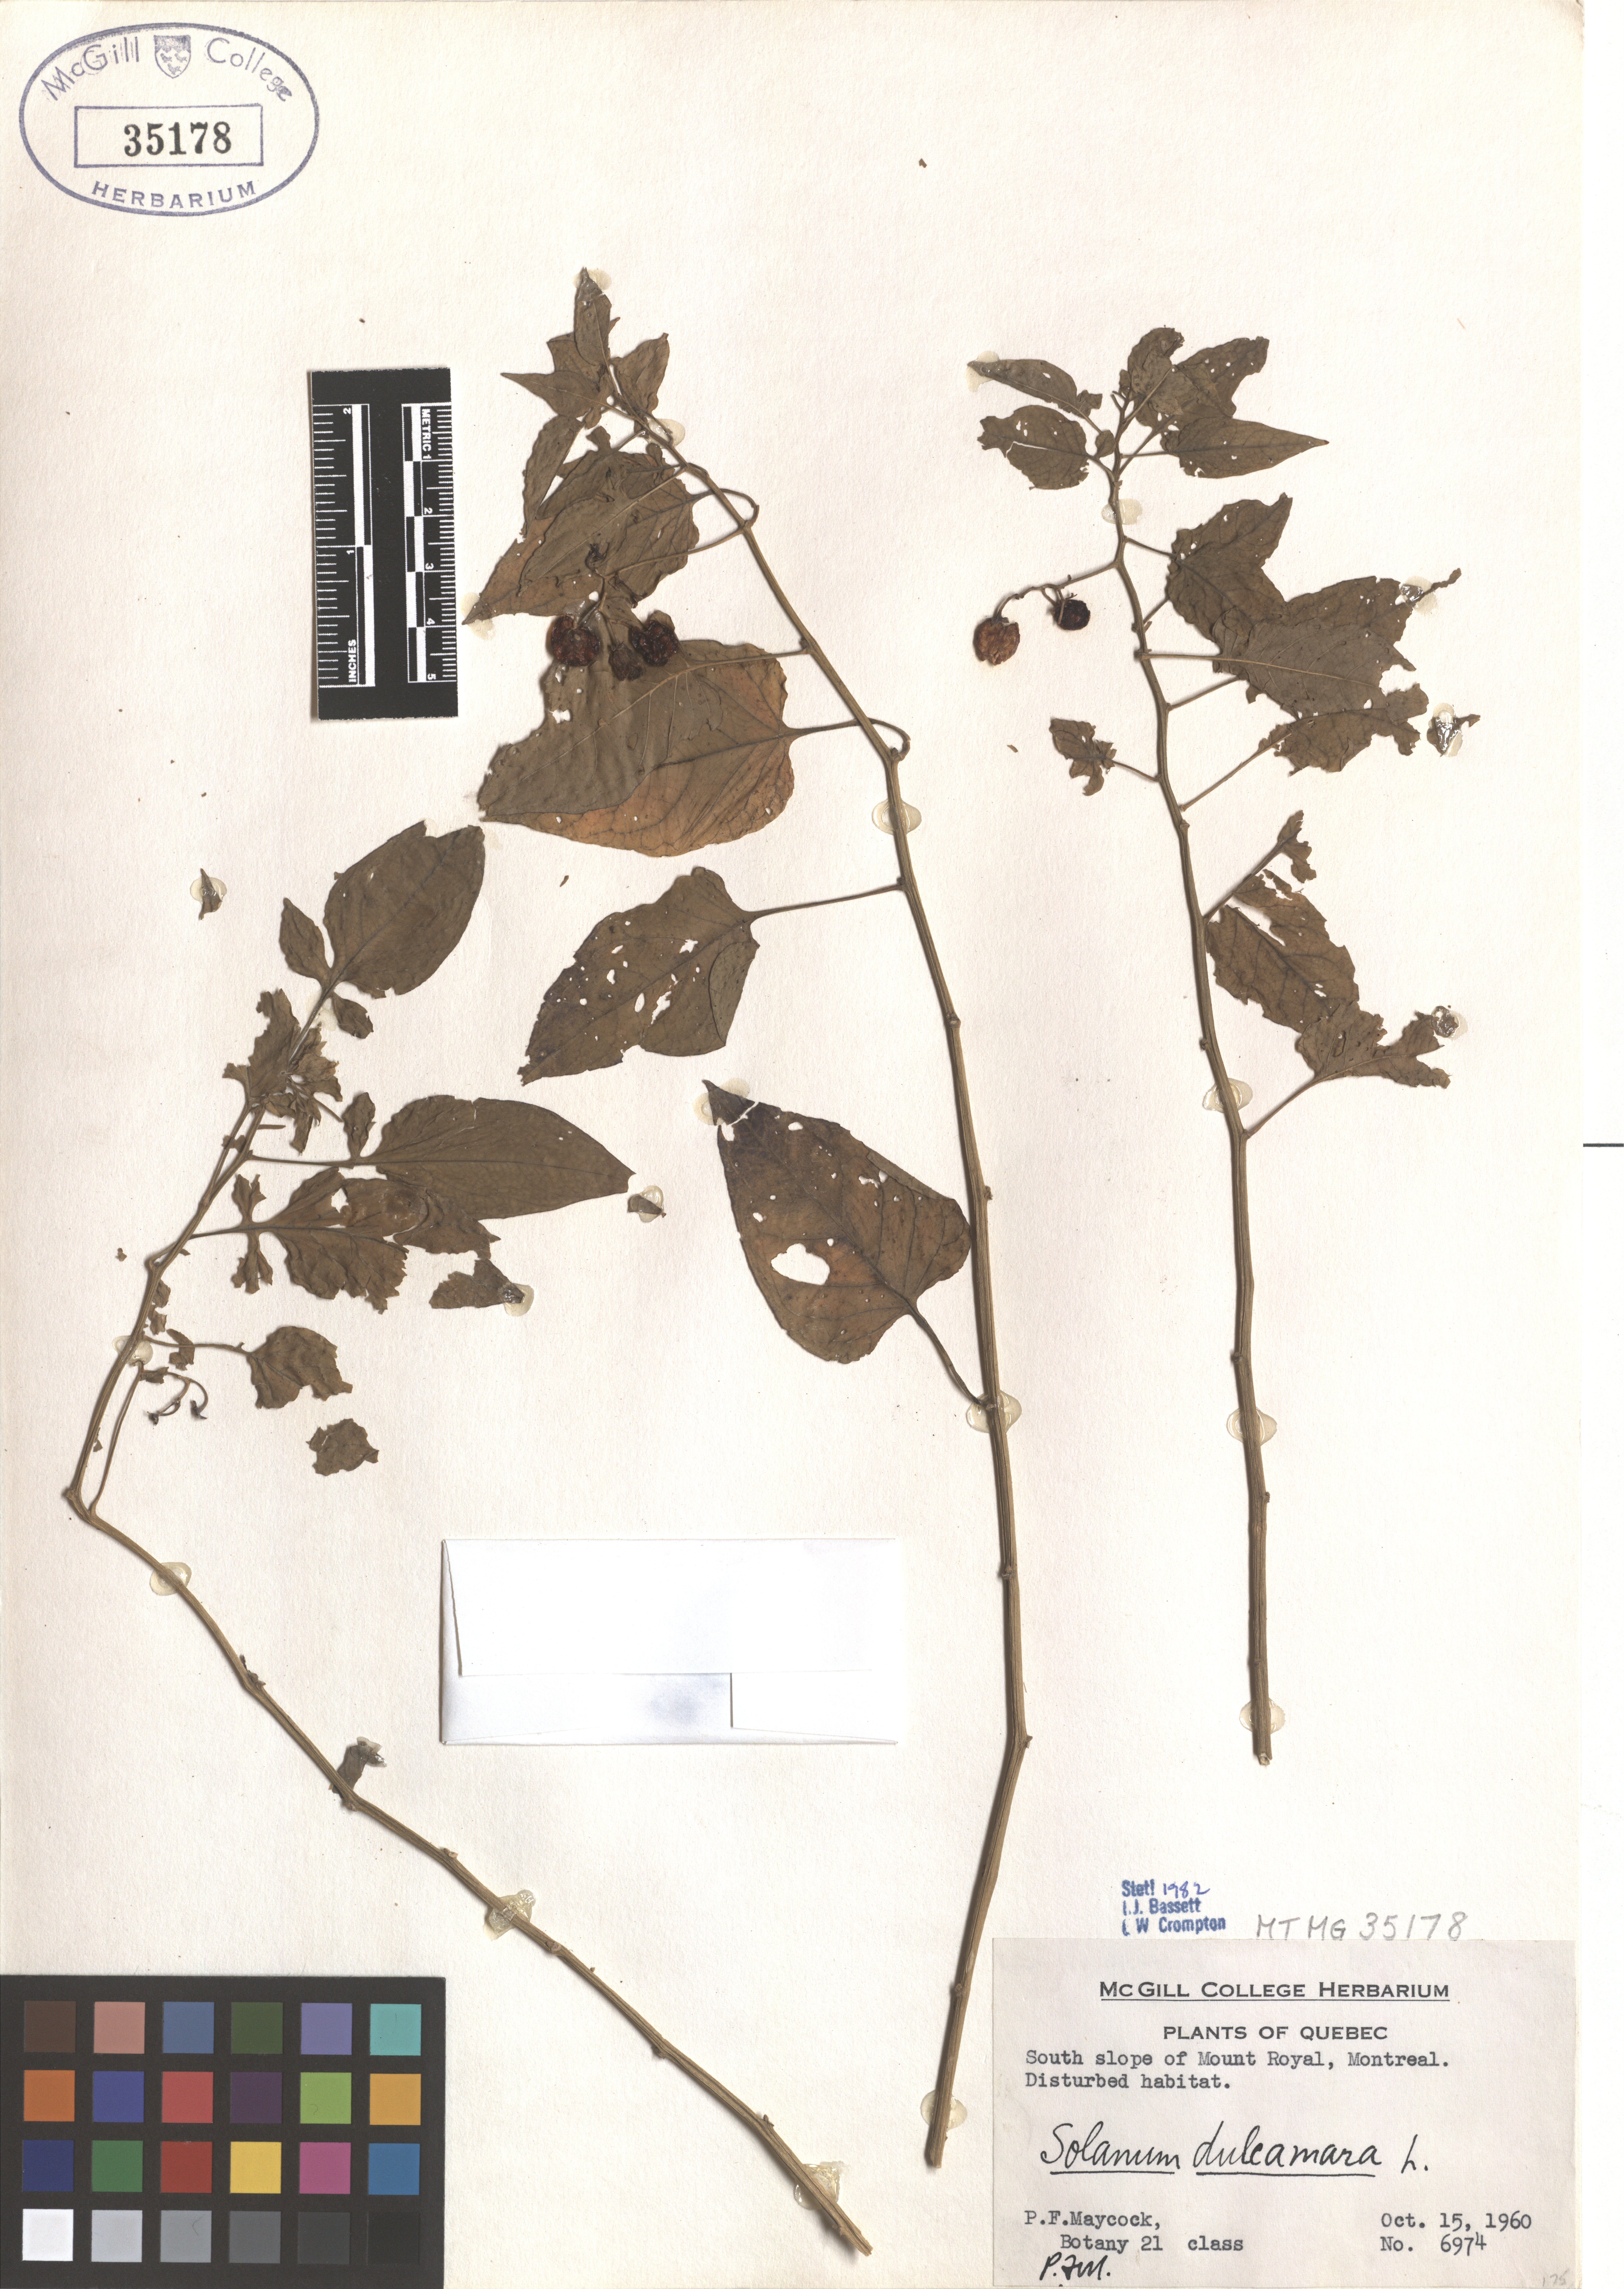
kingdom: Plantae
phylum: Tracheophyta
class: Magnoliopsida
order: Solanales
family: Solanaceae
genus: Solanum
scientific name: Solanum dulcamara
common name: Climbing nightshade
